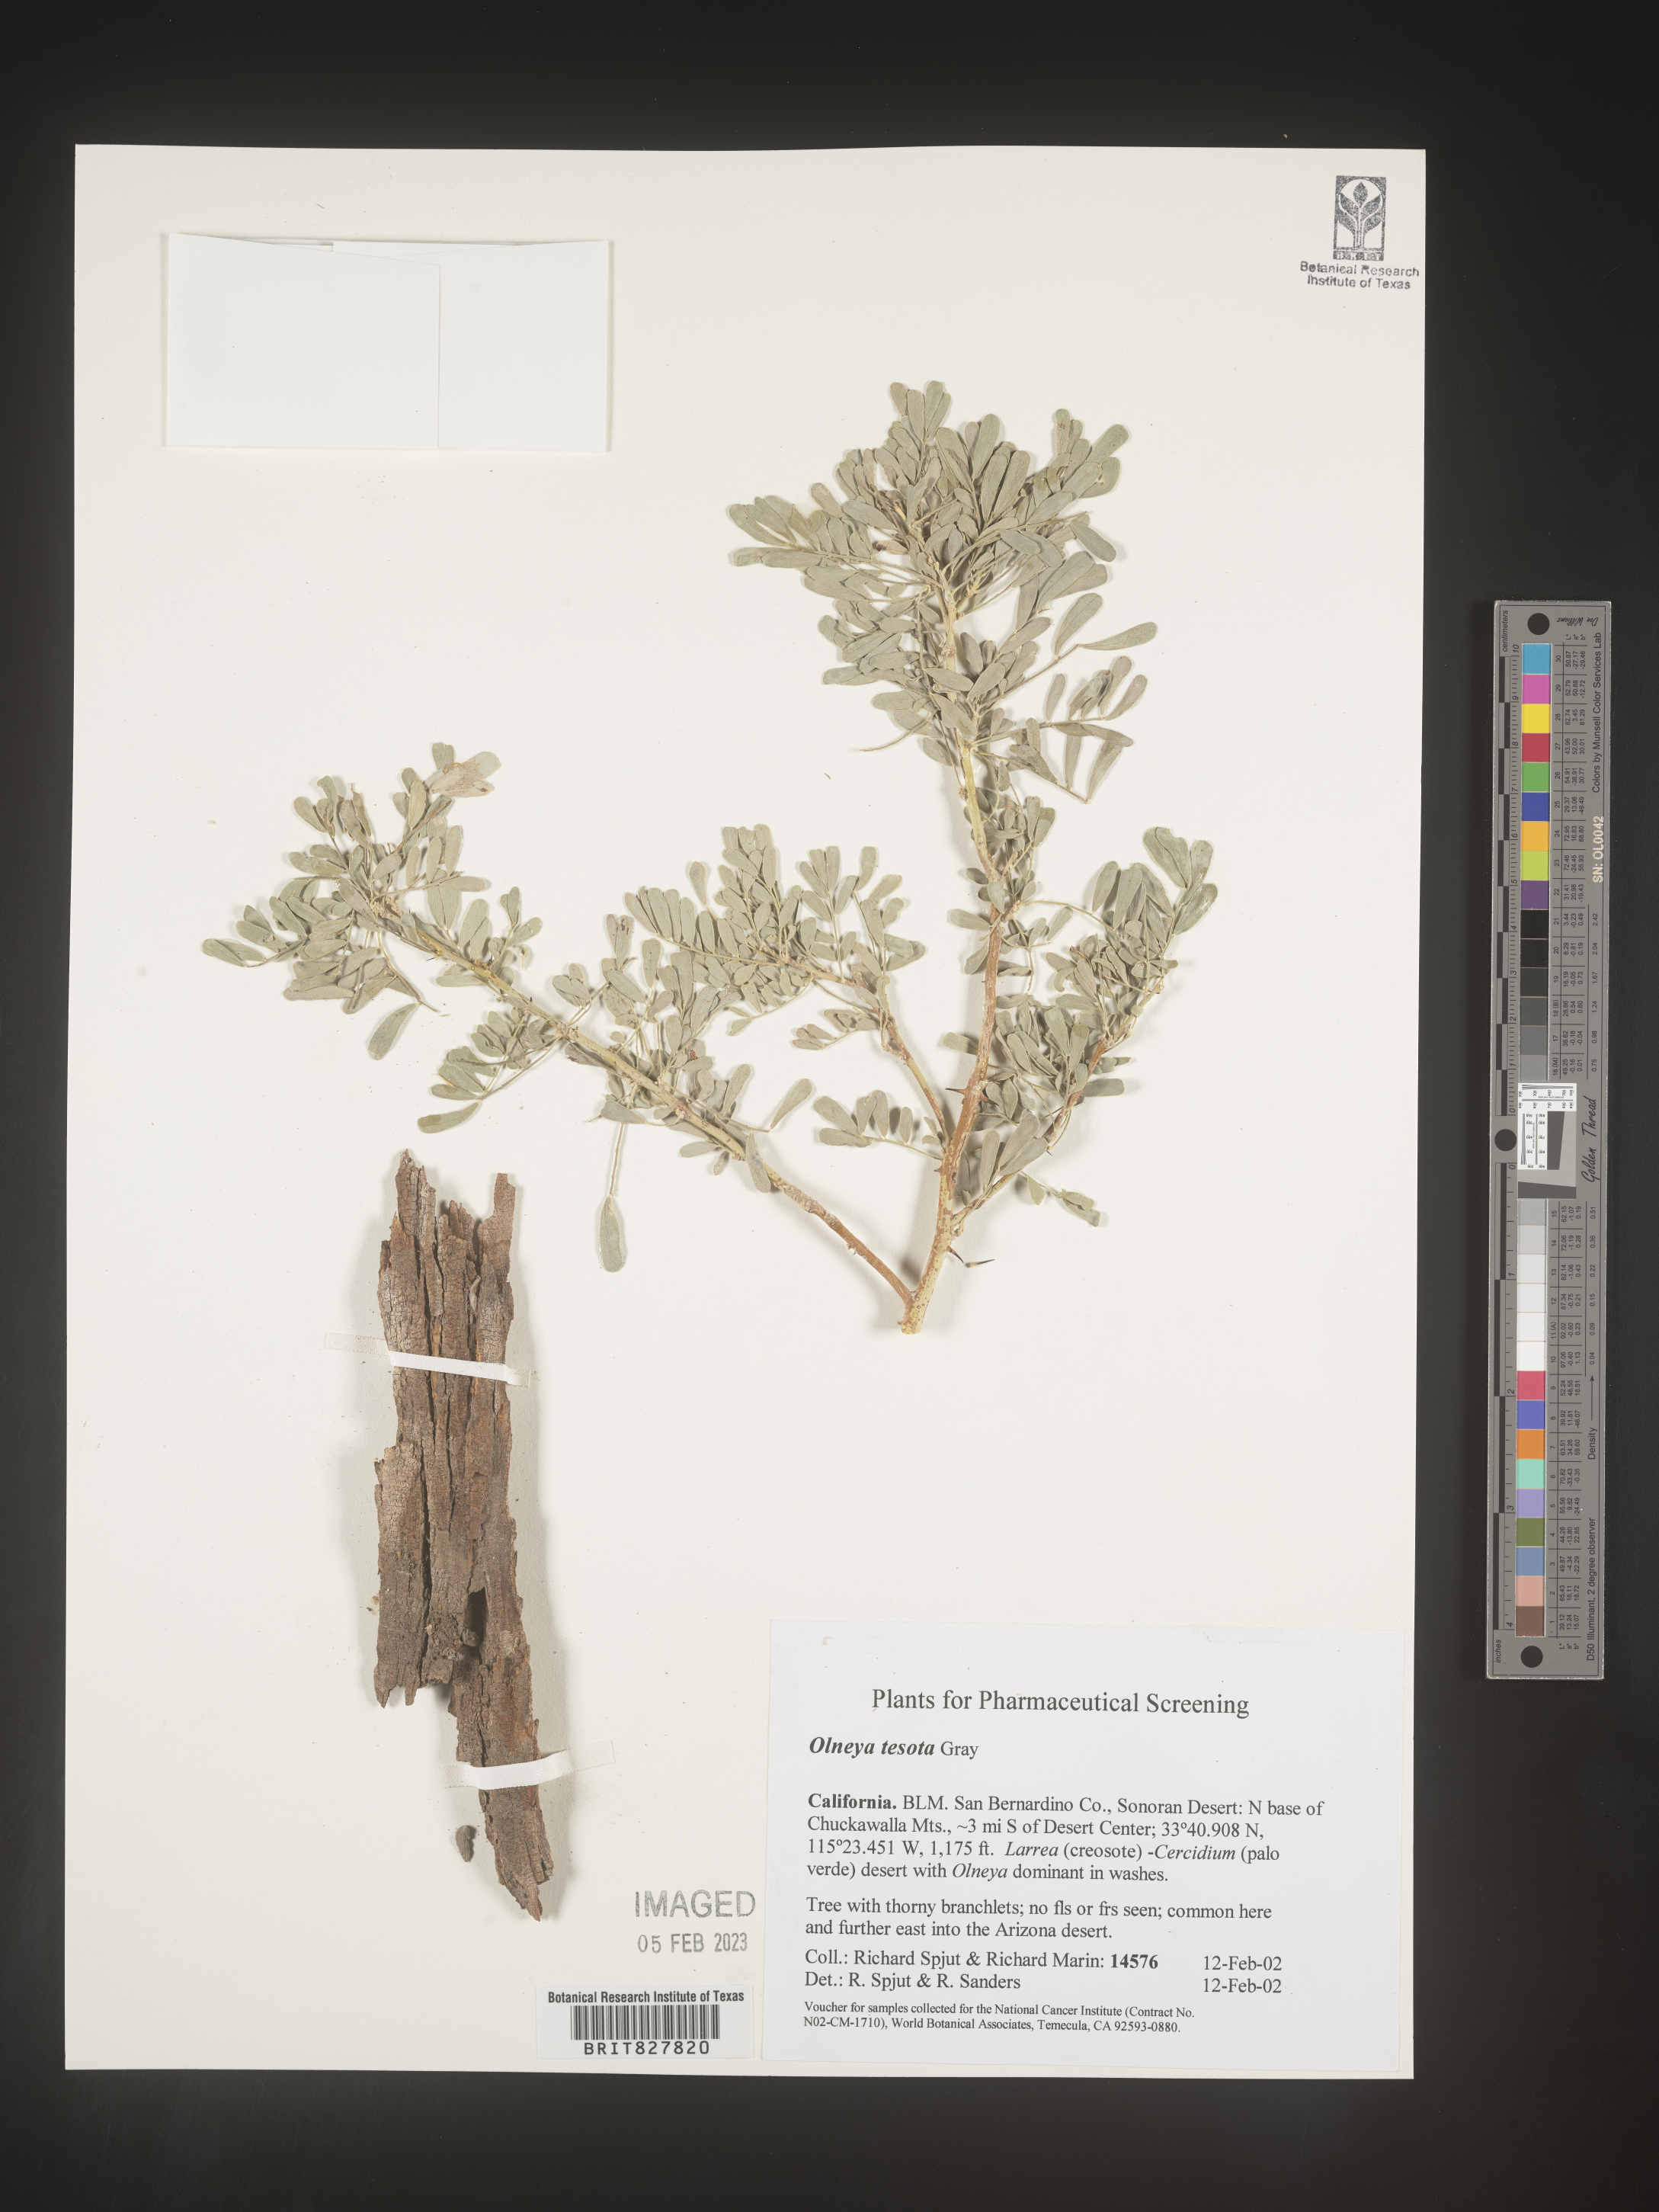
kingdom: Plantae
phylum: Tracheophyta
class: Magnoliopsida
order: Fabales
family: Fabaceae
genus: Olneya
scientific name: Olneya tesota
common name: Desert ironwood
